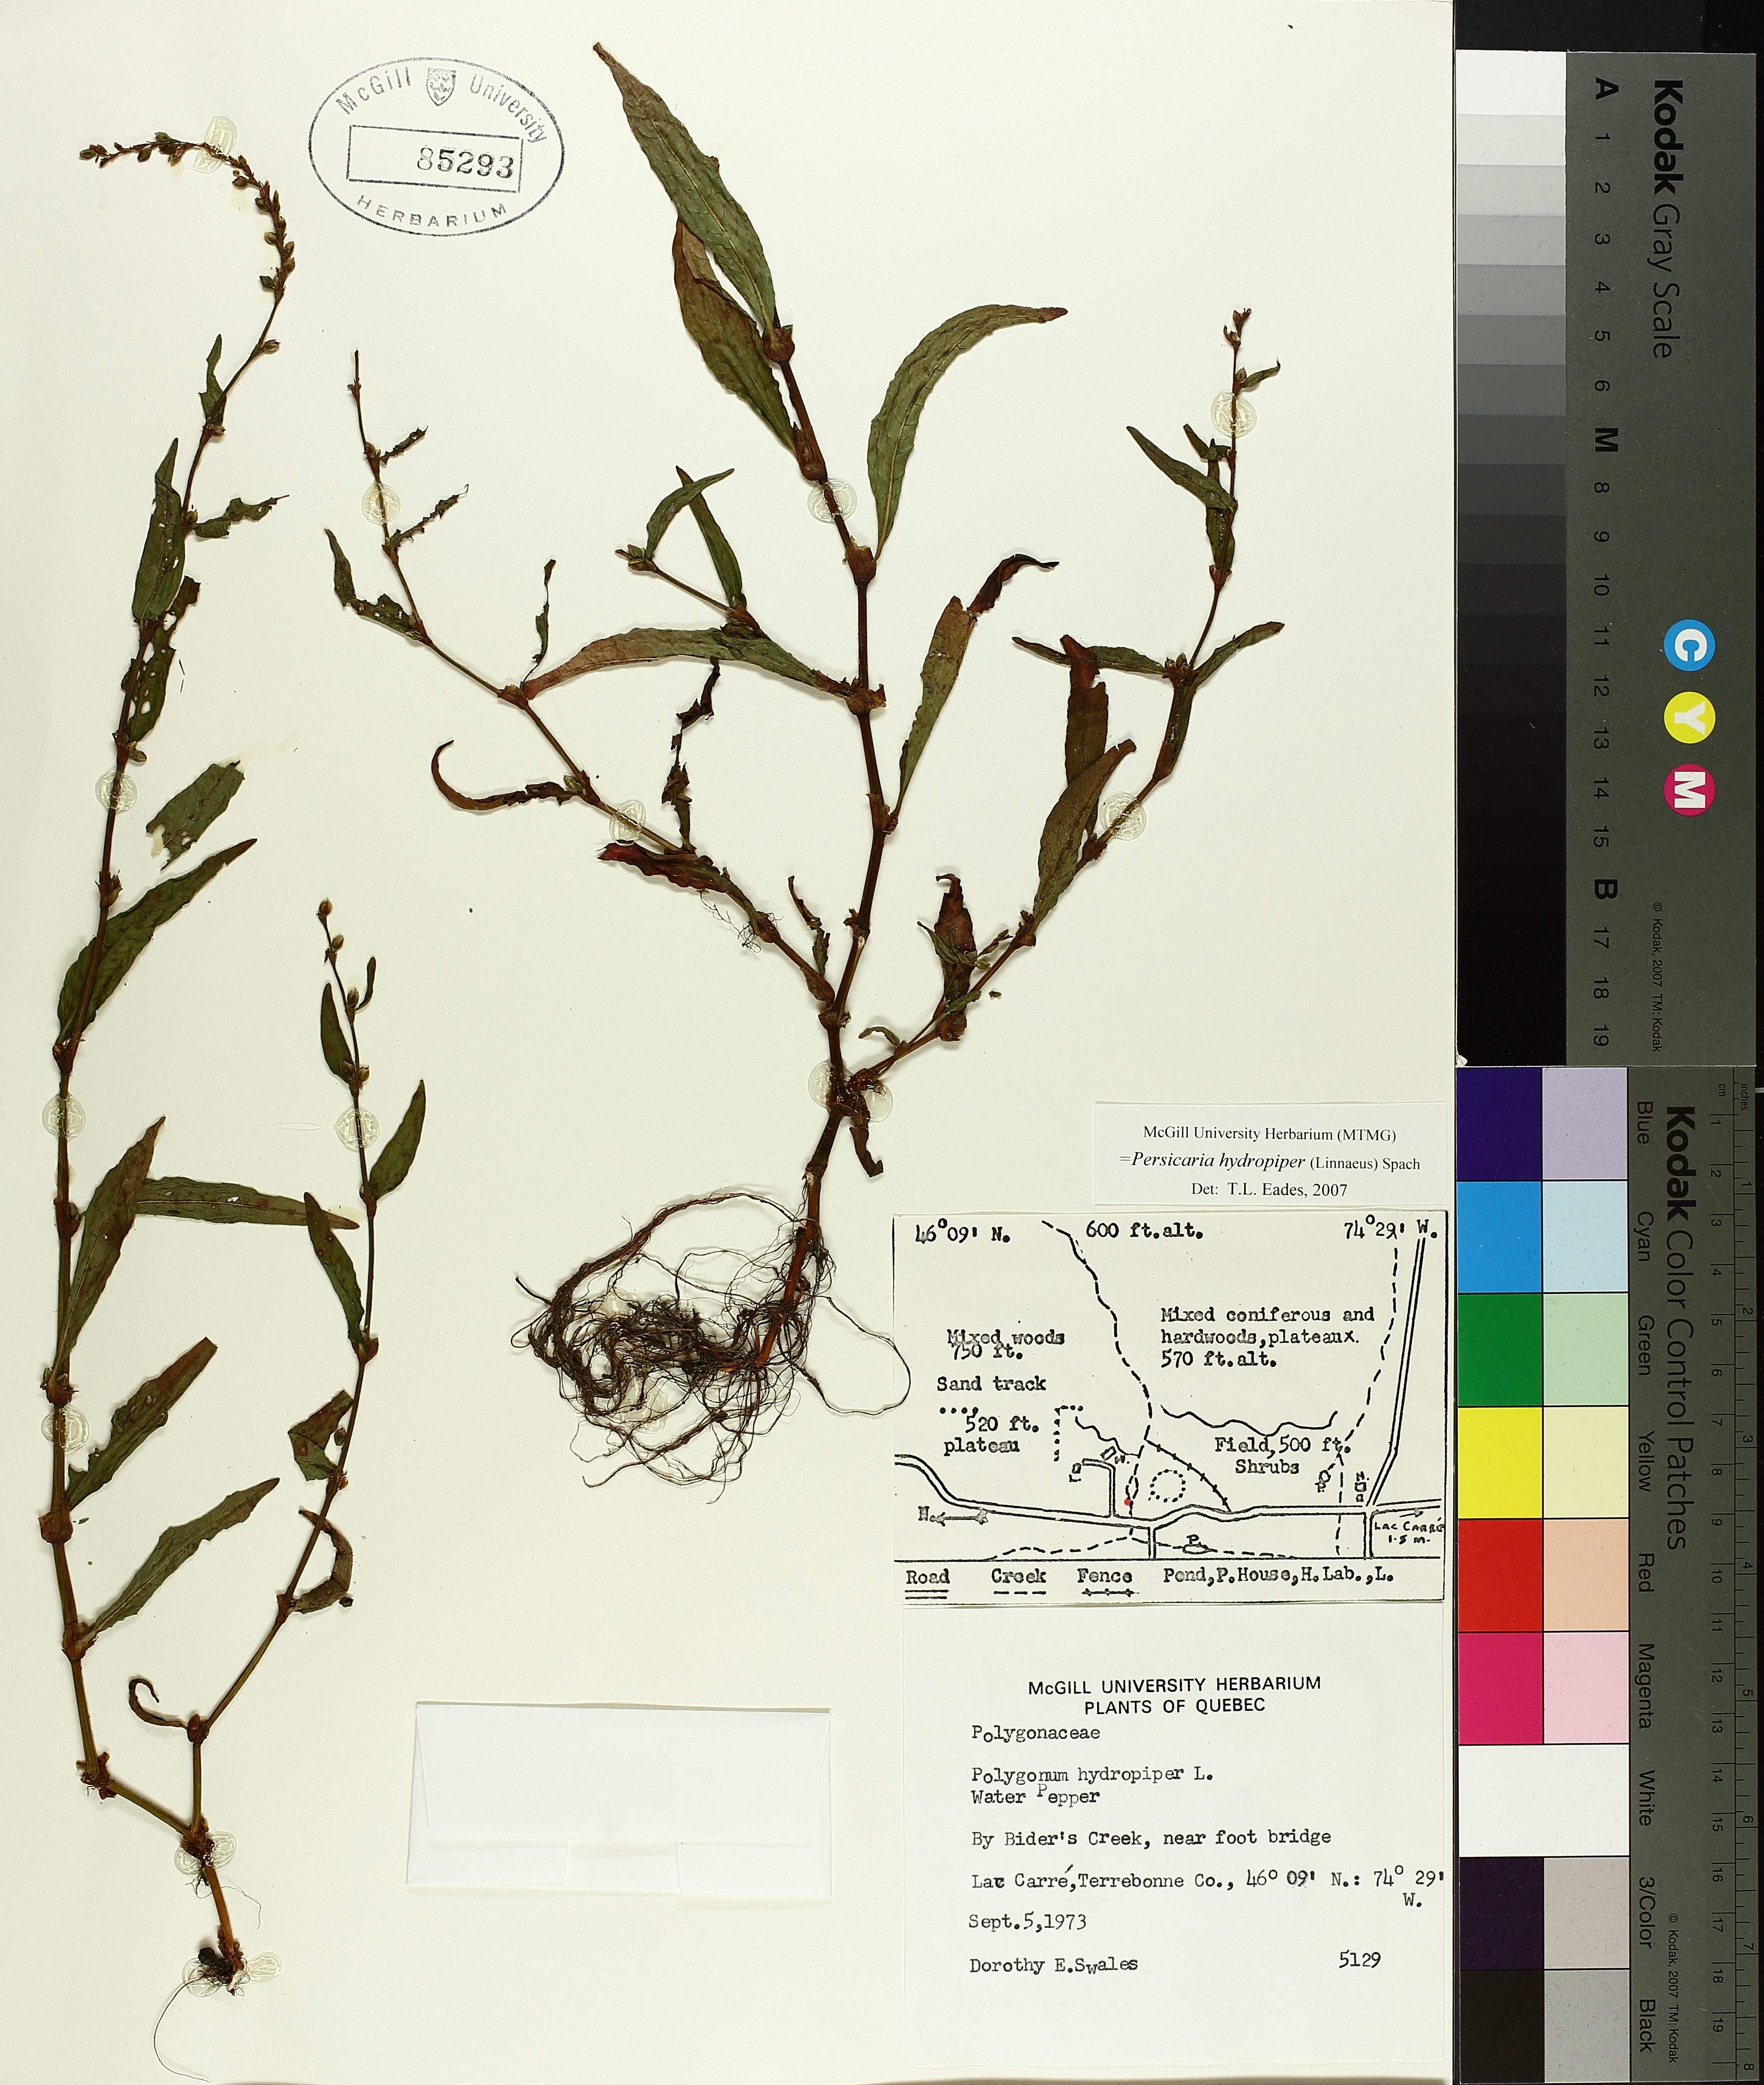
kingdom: Plantae
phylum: Tracheophyta
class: Magnoliopsida
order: Caryophyllales
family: Polygonaceae
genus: Persicaria
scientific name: Persicaria hydropiper
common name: Water-pepper
